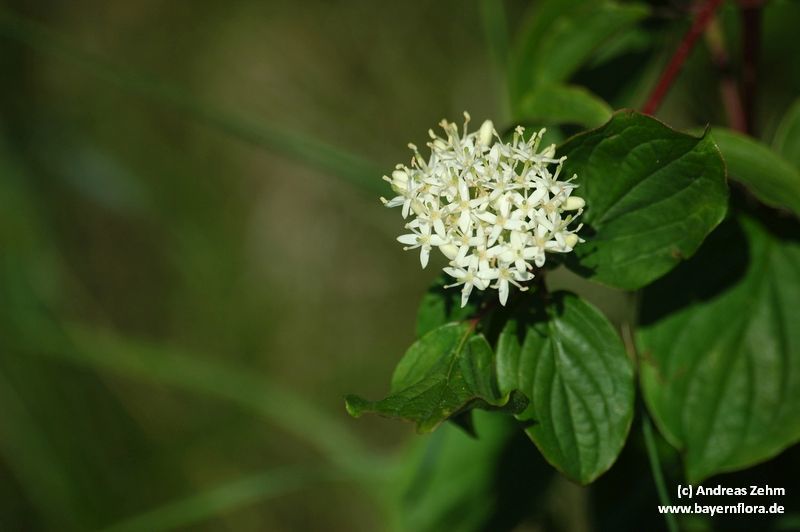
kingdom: Plantae
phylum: Tracheophyta
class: Magnoliopsida
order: Cornales
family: Cornaceae
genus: Cornus
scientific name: Cornus sanguinea
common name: Dogwood
